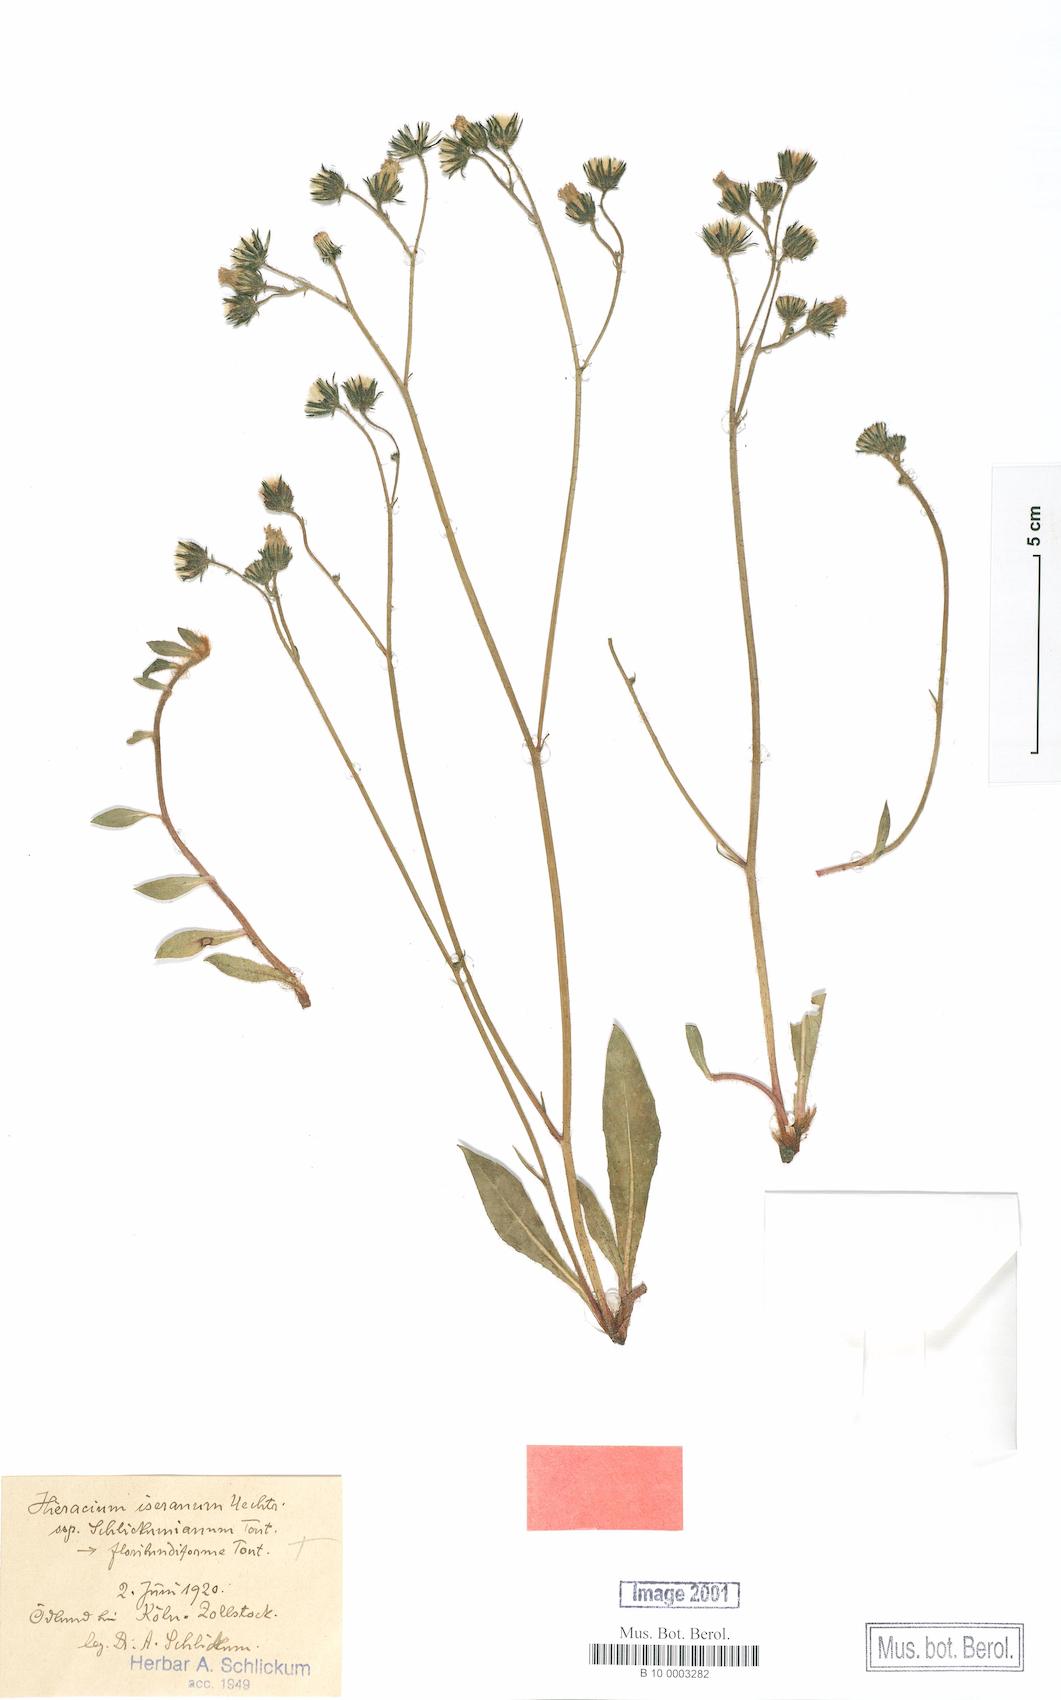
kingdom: Plantae
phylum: Tracheophyta
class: Magnoliopsida
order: Asterales
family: Asteraceae
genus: Pilosella
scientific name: Pilosella iserana
